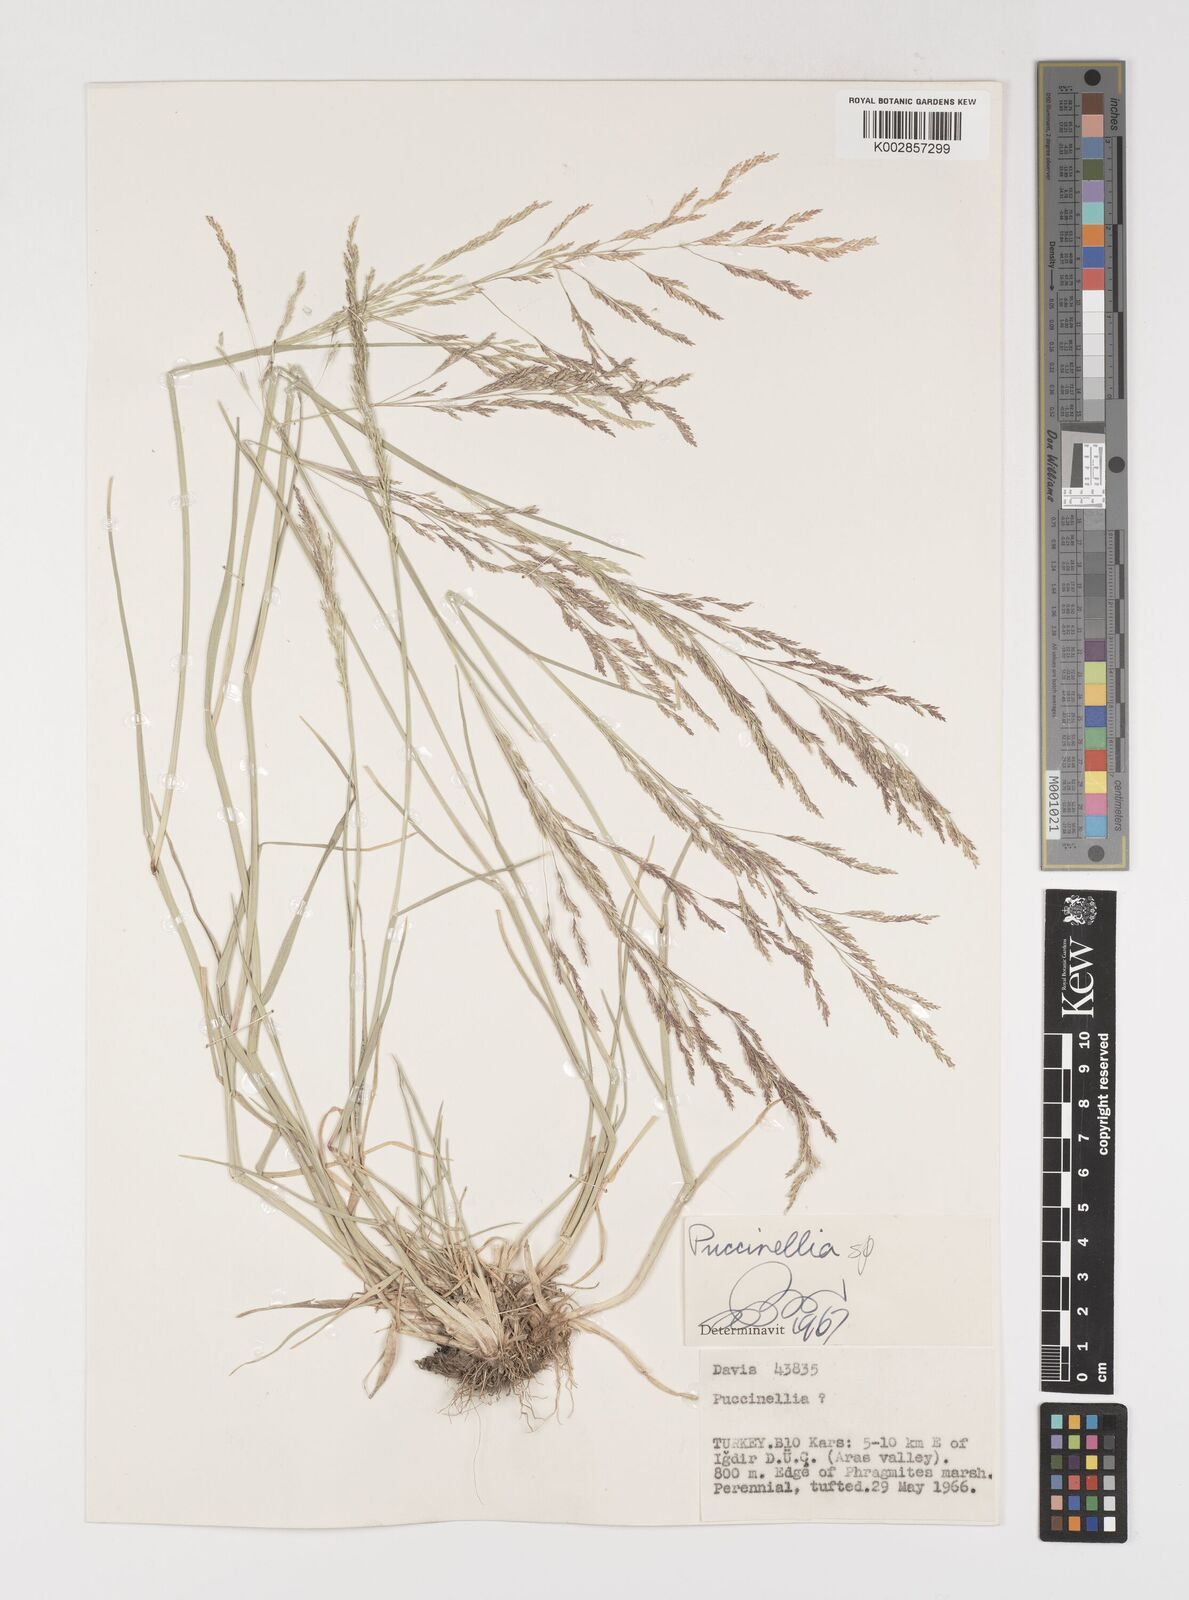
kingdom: Plantae
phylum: Tracheophyta
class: Liliopsida
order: Poales
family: Poaceae
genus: Puccinellia
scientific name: Puccinellia
